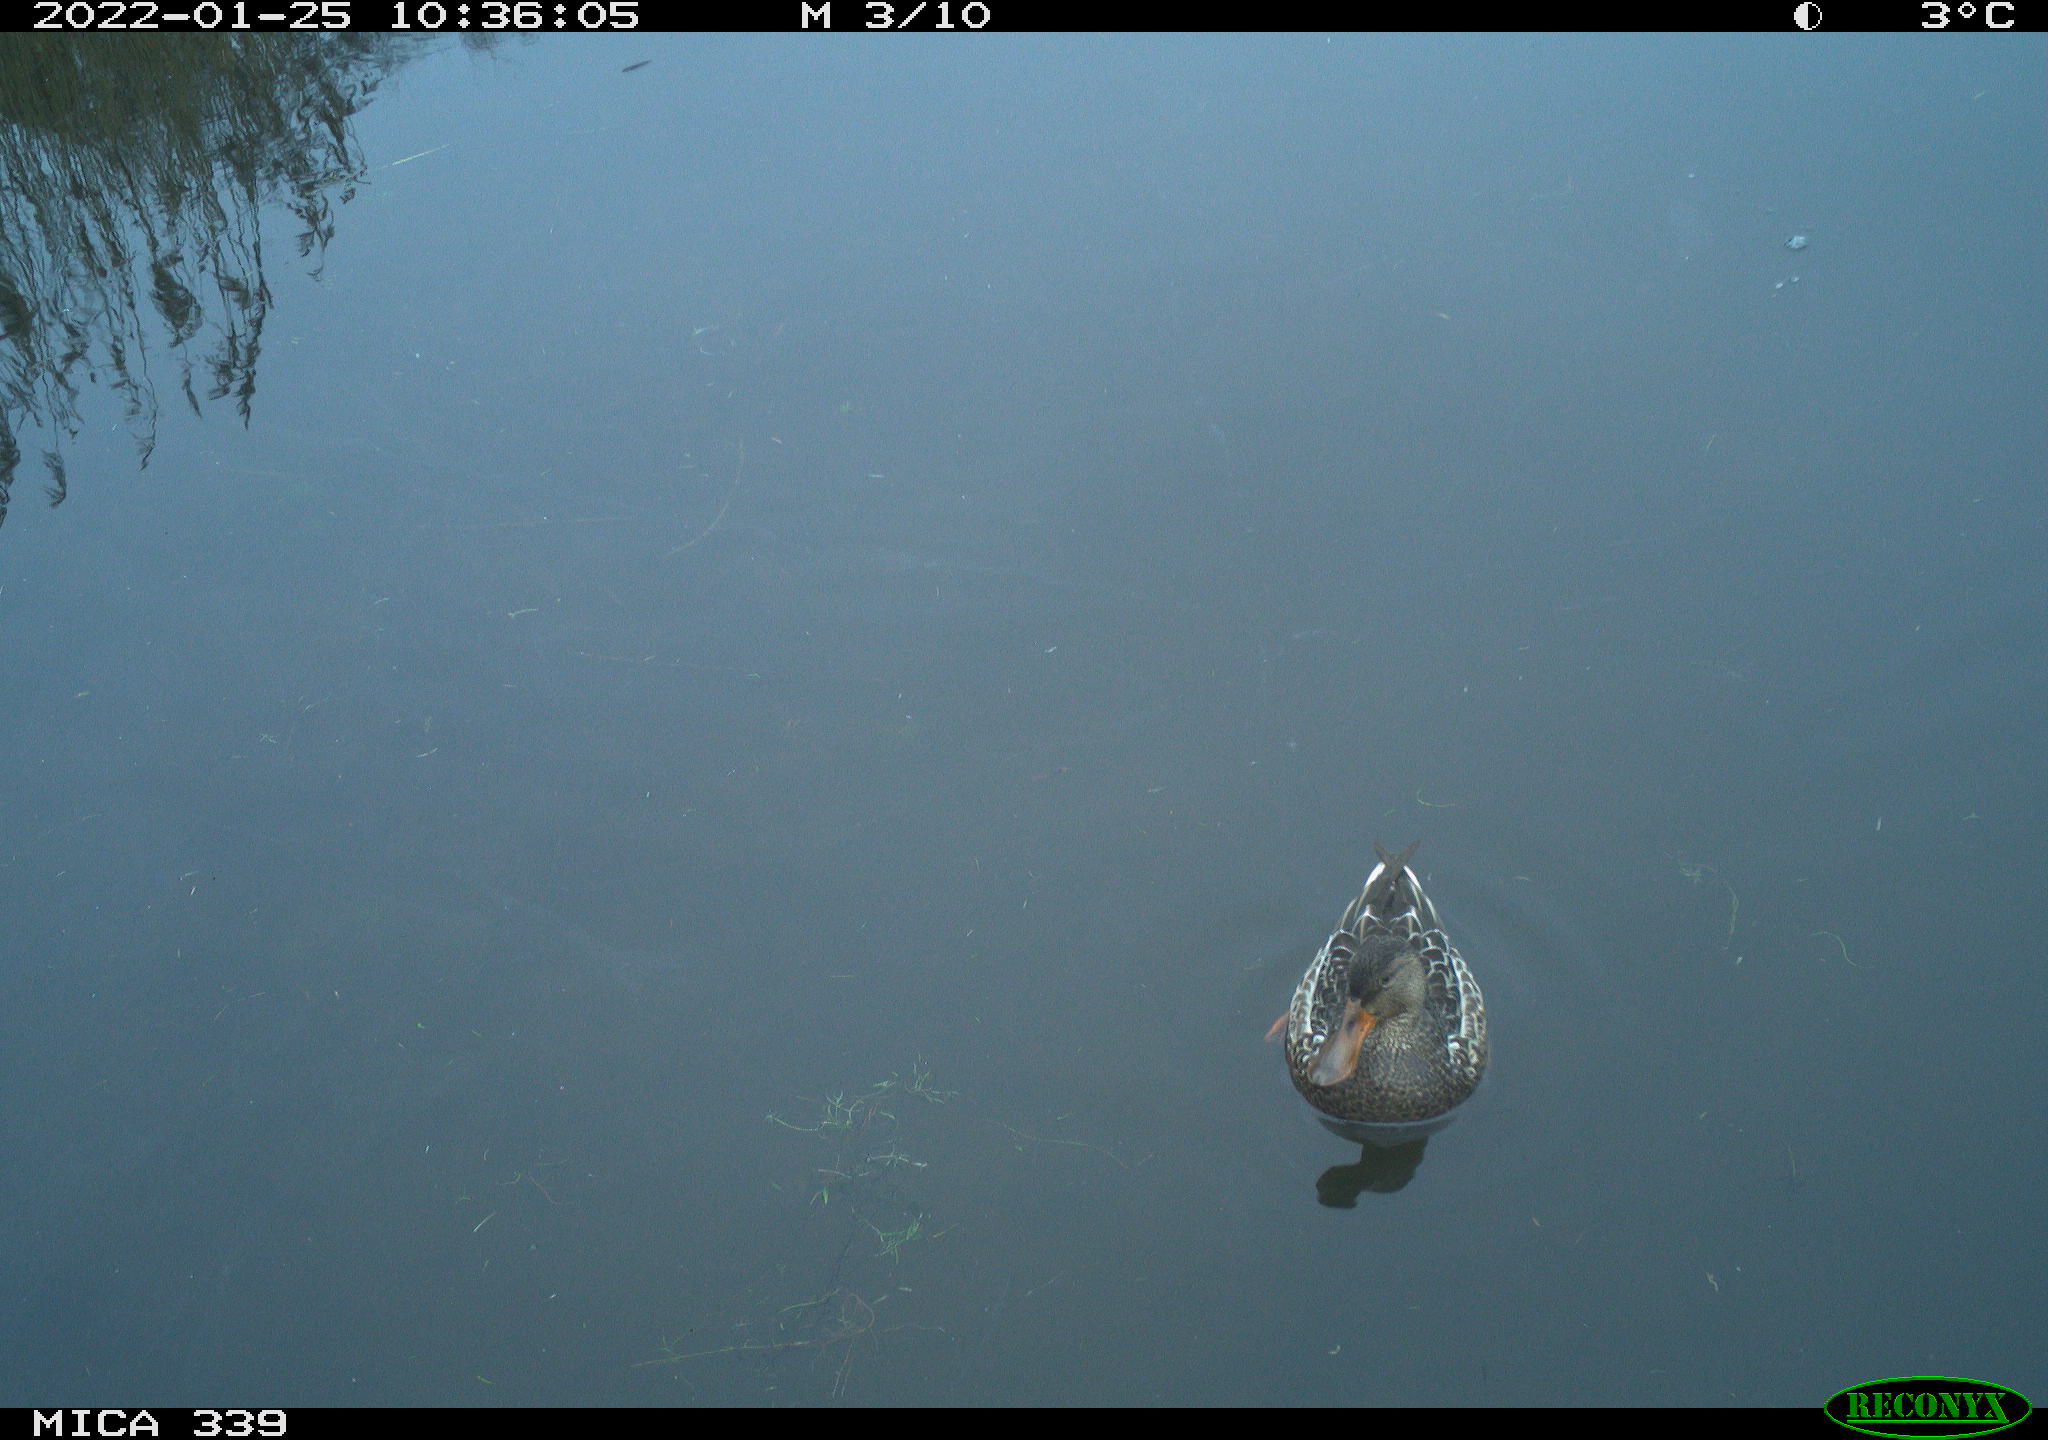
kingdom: Animalia
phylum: Chordata
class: Aves
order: Anseriformes
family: Anatidae
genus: Anas
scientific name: Anas platyrhynchos
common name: Mallard
